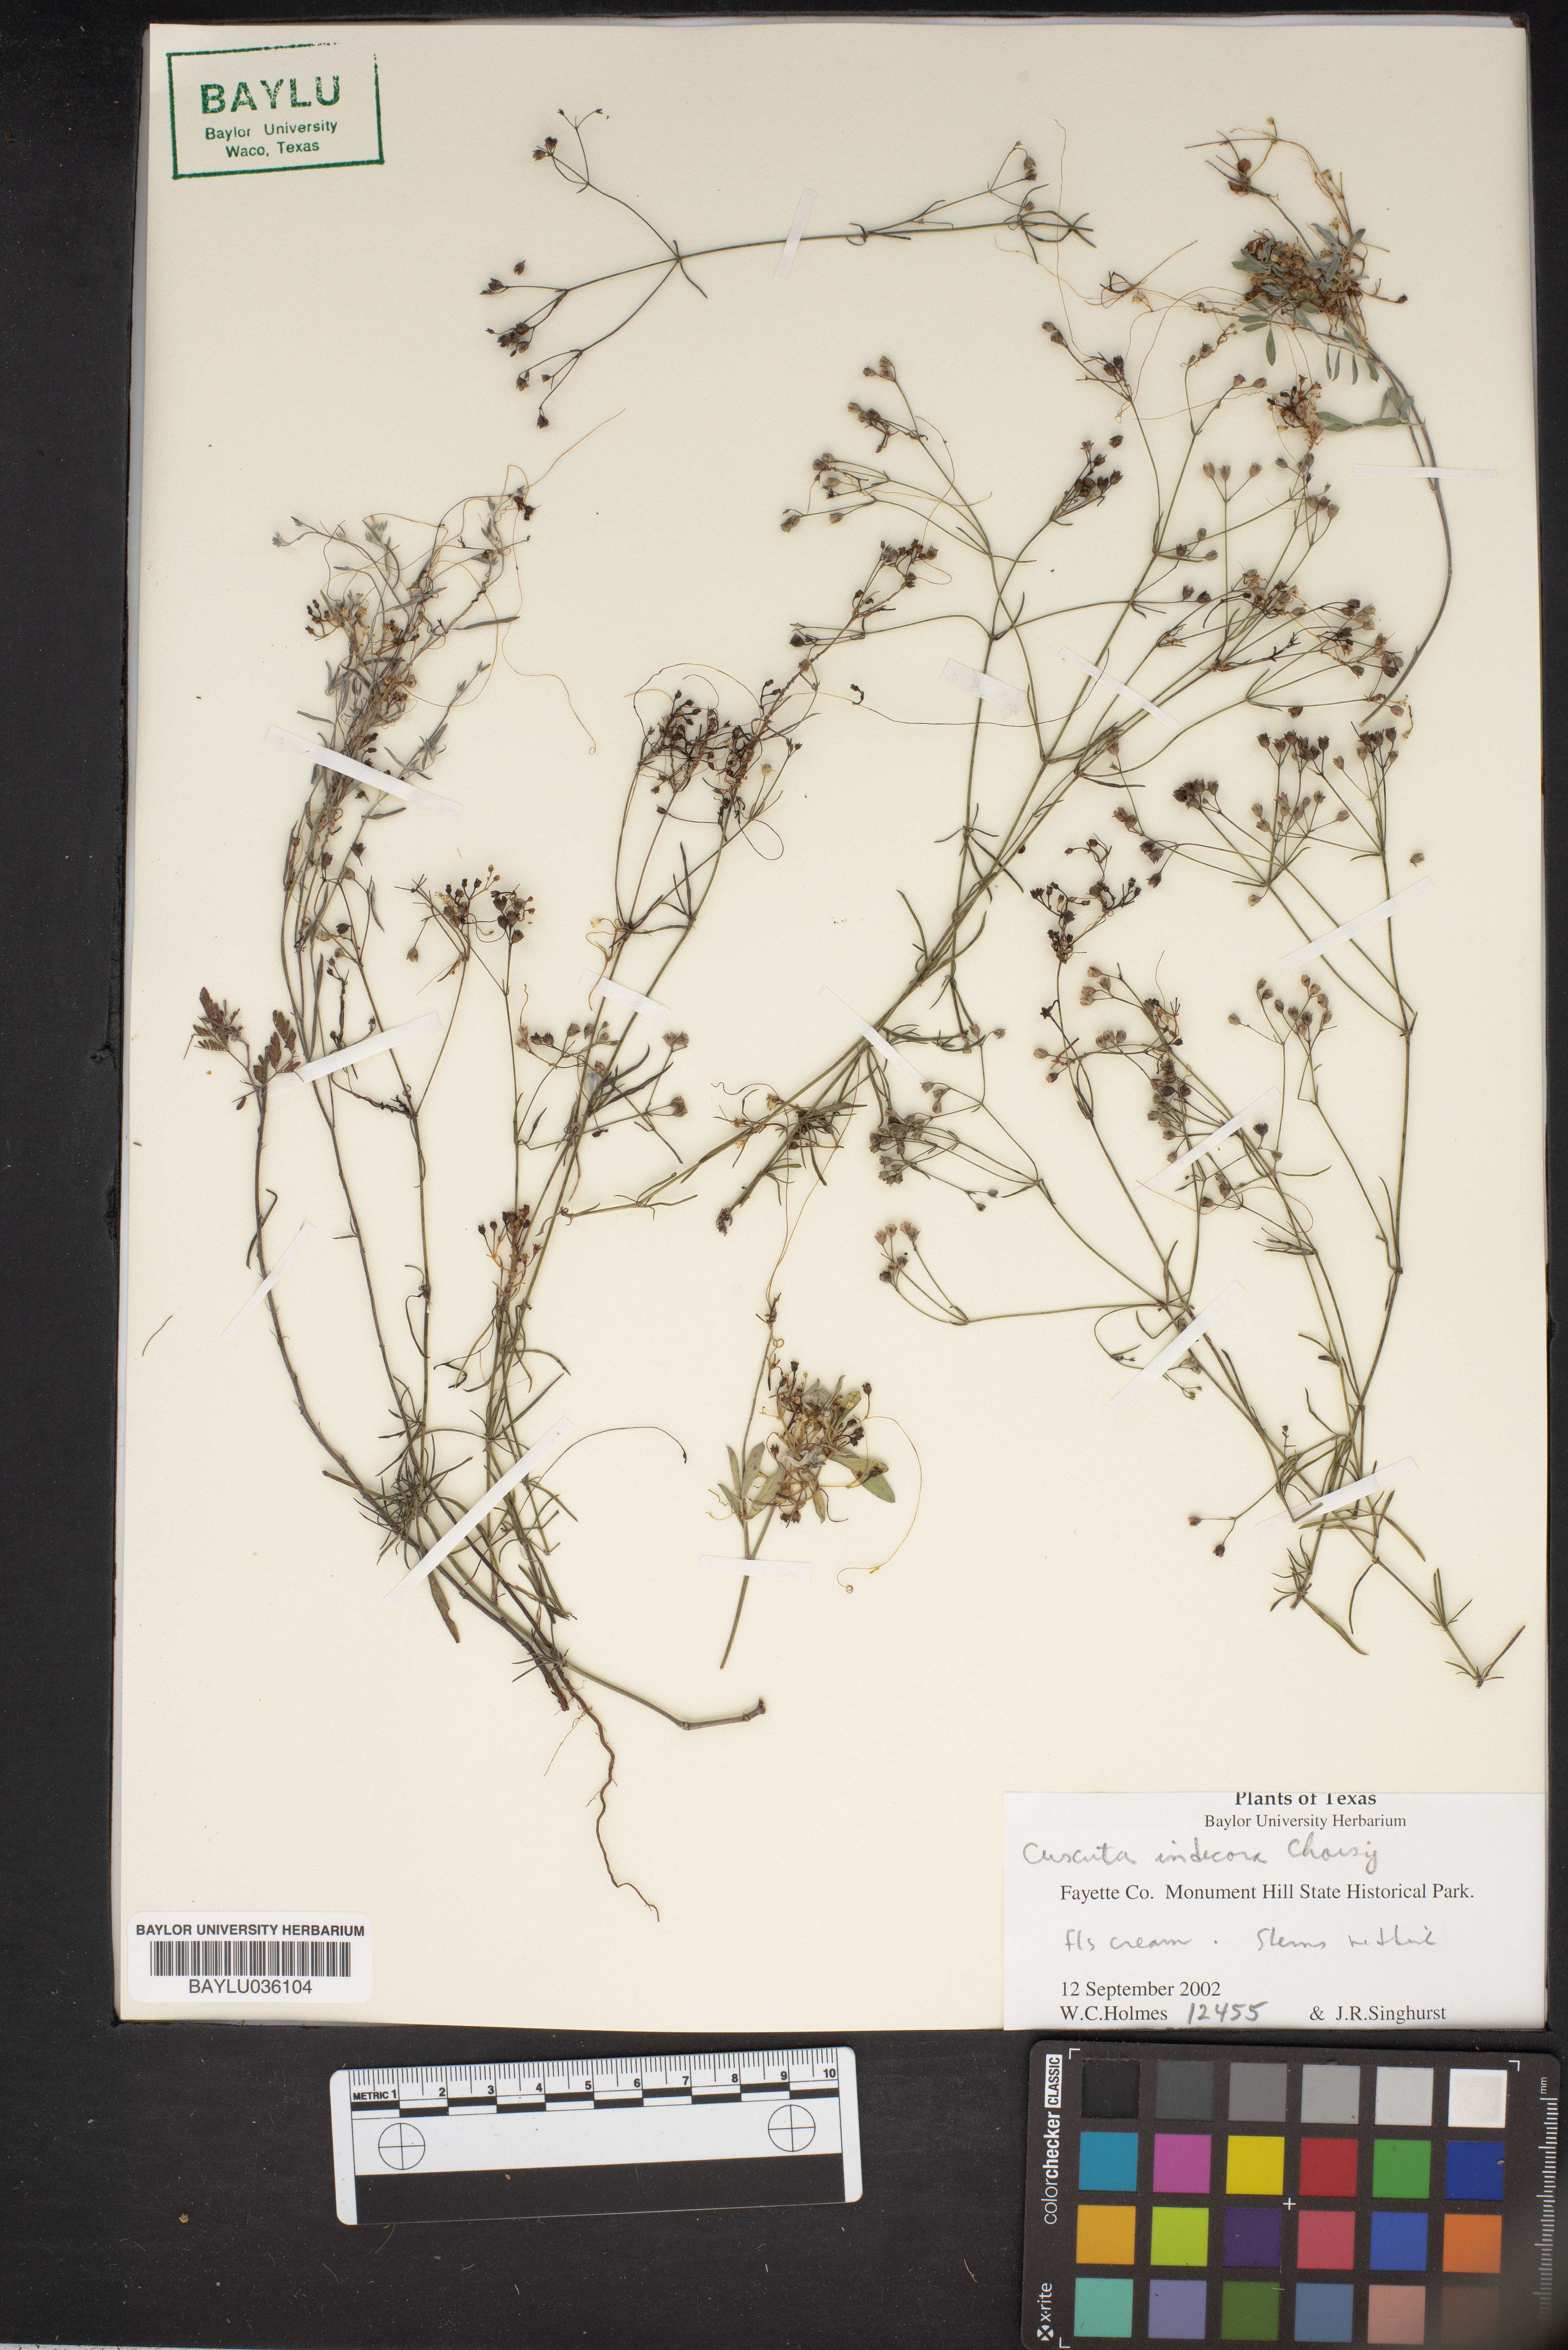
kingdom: Plantae
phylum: Tracheophyta
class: Magnoliopsida
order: Solanales
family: Convolvulaceae
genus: Cuscuta
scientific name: Cuscuta indecora
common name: Large-seed dodder
